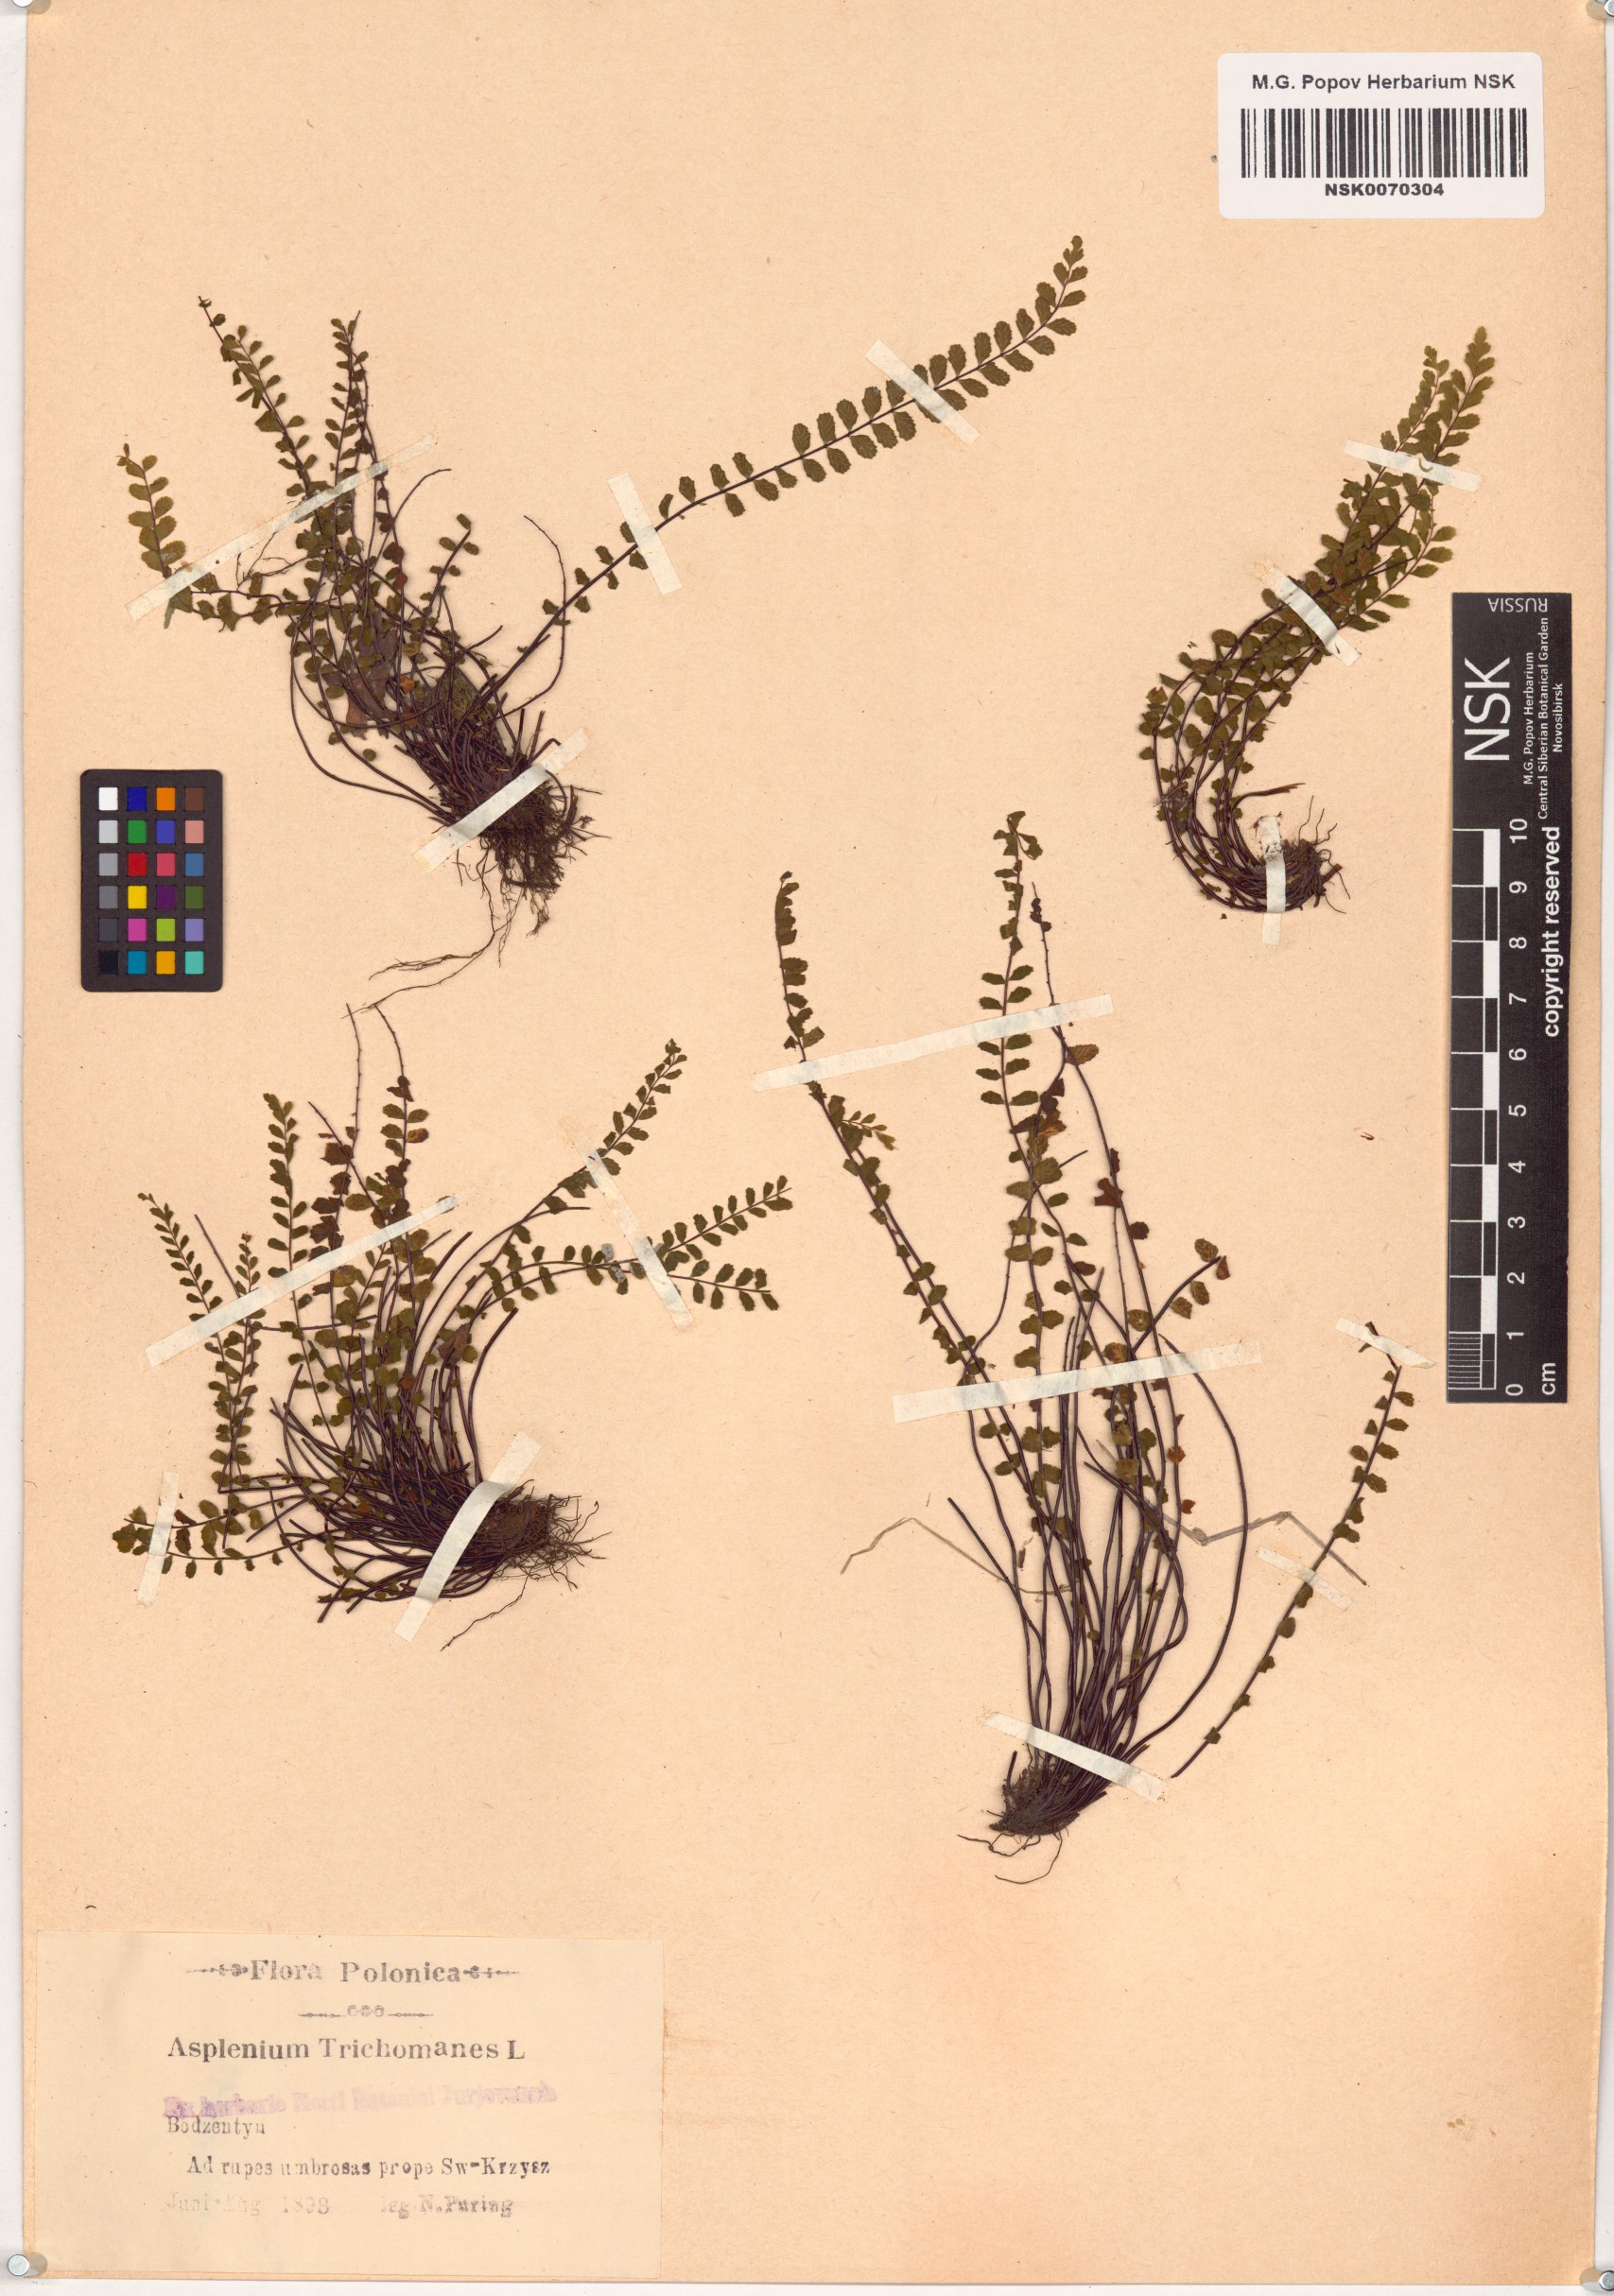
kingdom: Plantae
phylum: Tracheophyta
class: Polypodiopsida
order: Polypodiales
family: Aspleniaceae
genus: Asplenium
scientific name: Asplenium trichomanes
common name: Maidenhair spleenwort
